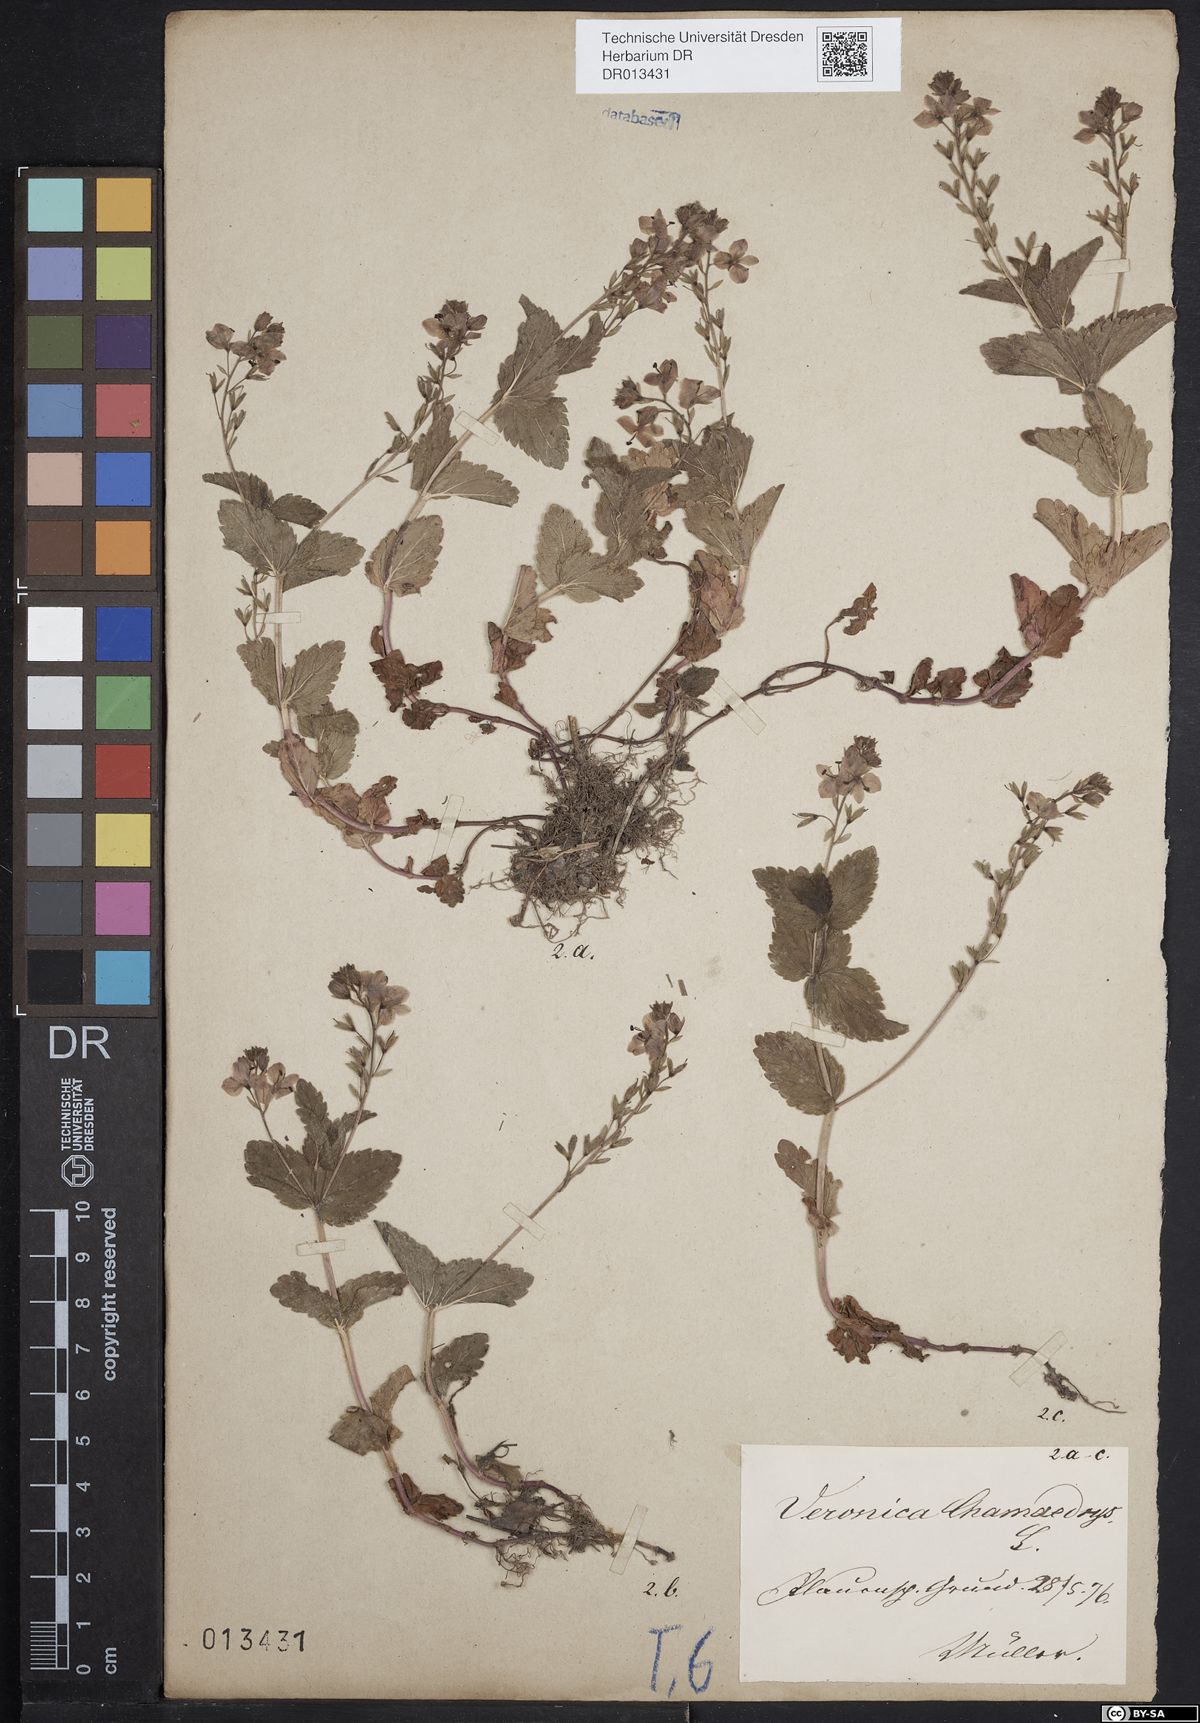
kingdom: Plantae
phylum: Tracheophyta
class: Magnoliopsida
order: Lamiales
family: Plantaginaceae
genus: Veronica
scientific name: Veronica chamaedrys
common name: Germander speedwell
